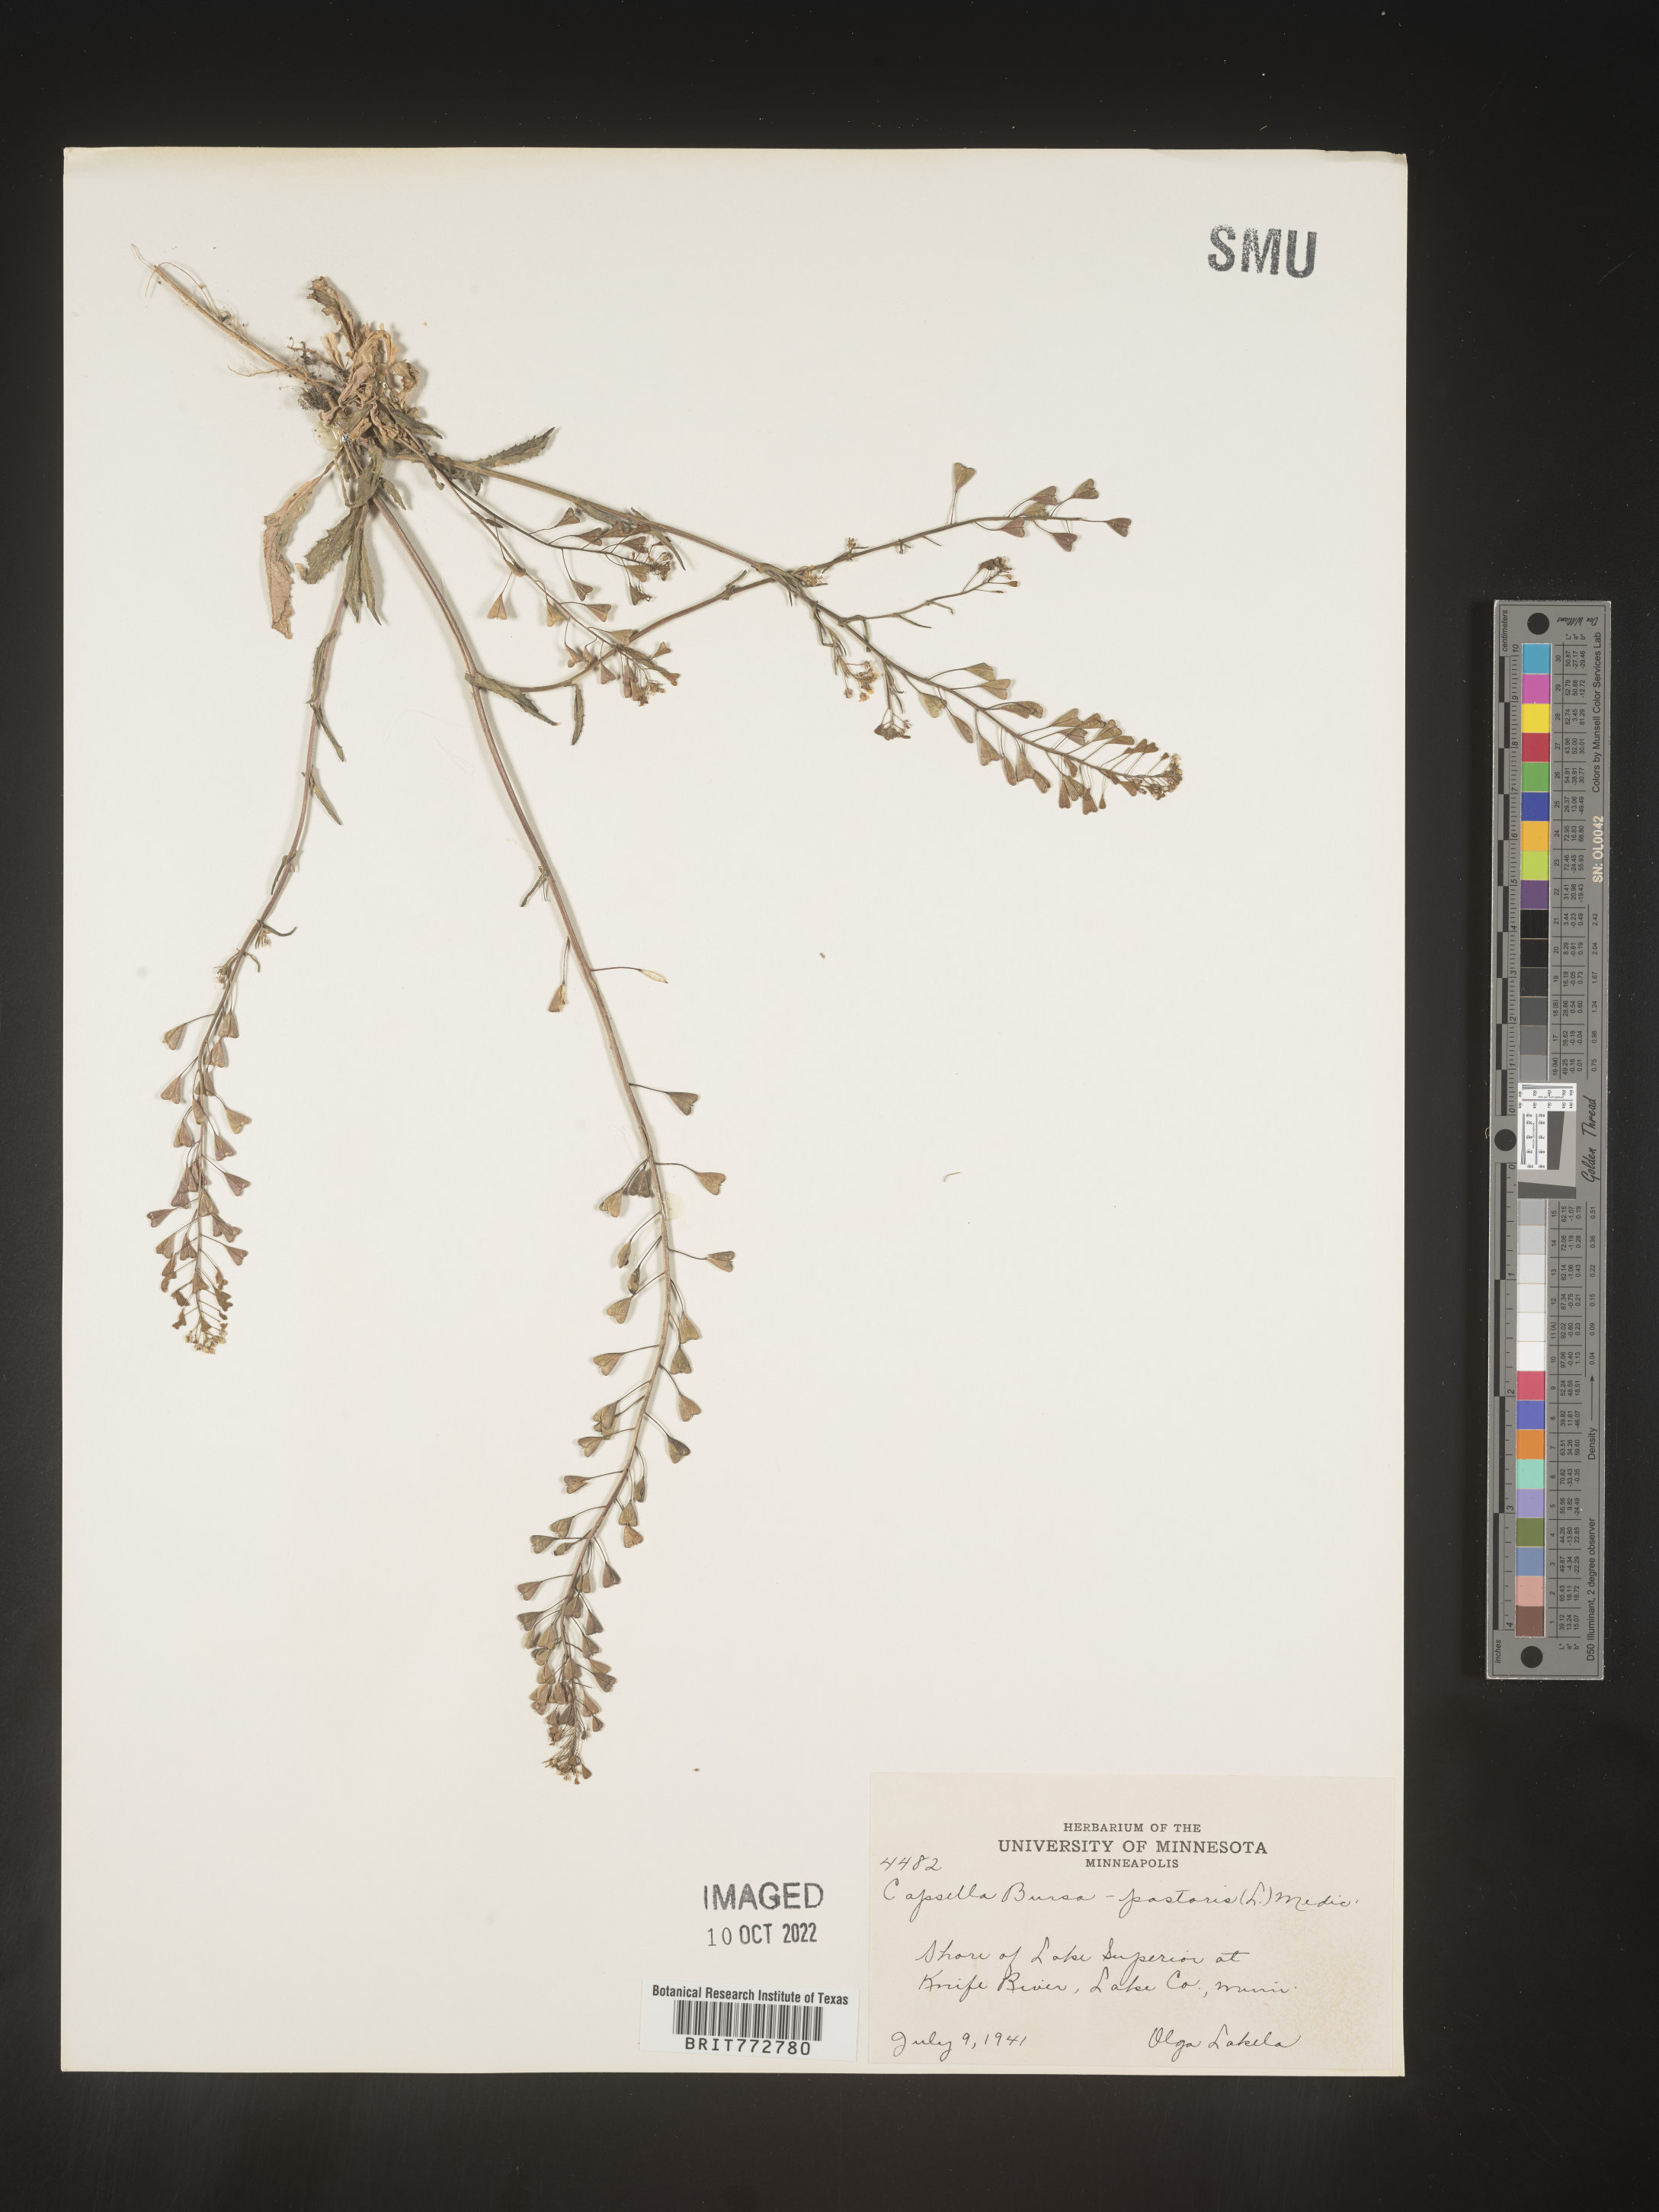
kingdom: Plantae
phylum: Tracheophyta
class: Magnoliopsida
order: Brassicales
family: Brassicaceae
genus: Capsella
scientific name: Capsella bursa-pastoris
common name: Shepherd's purse
